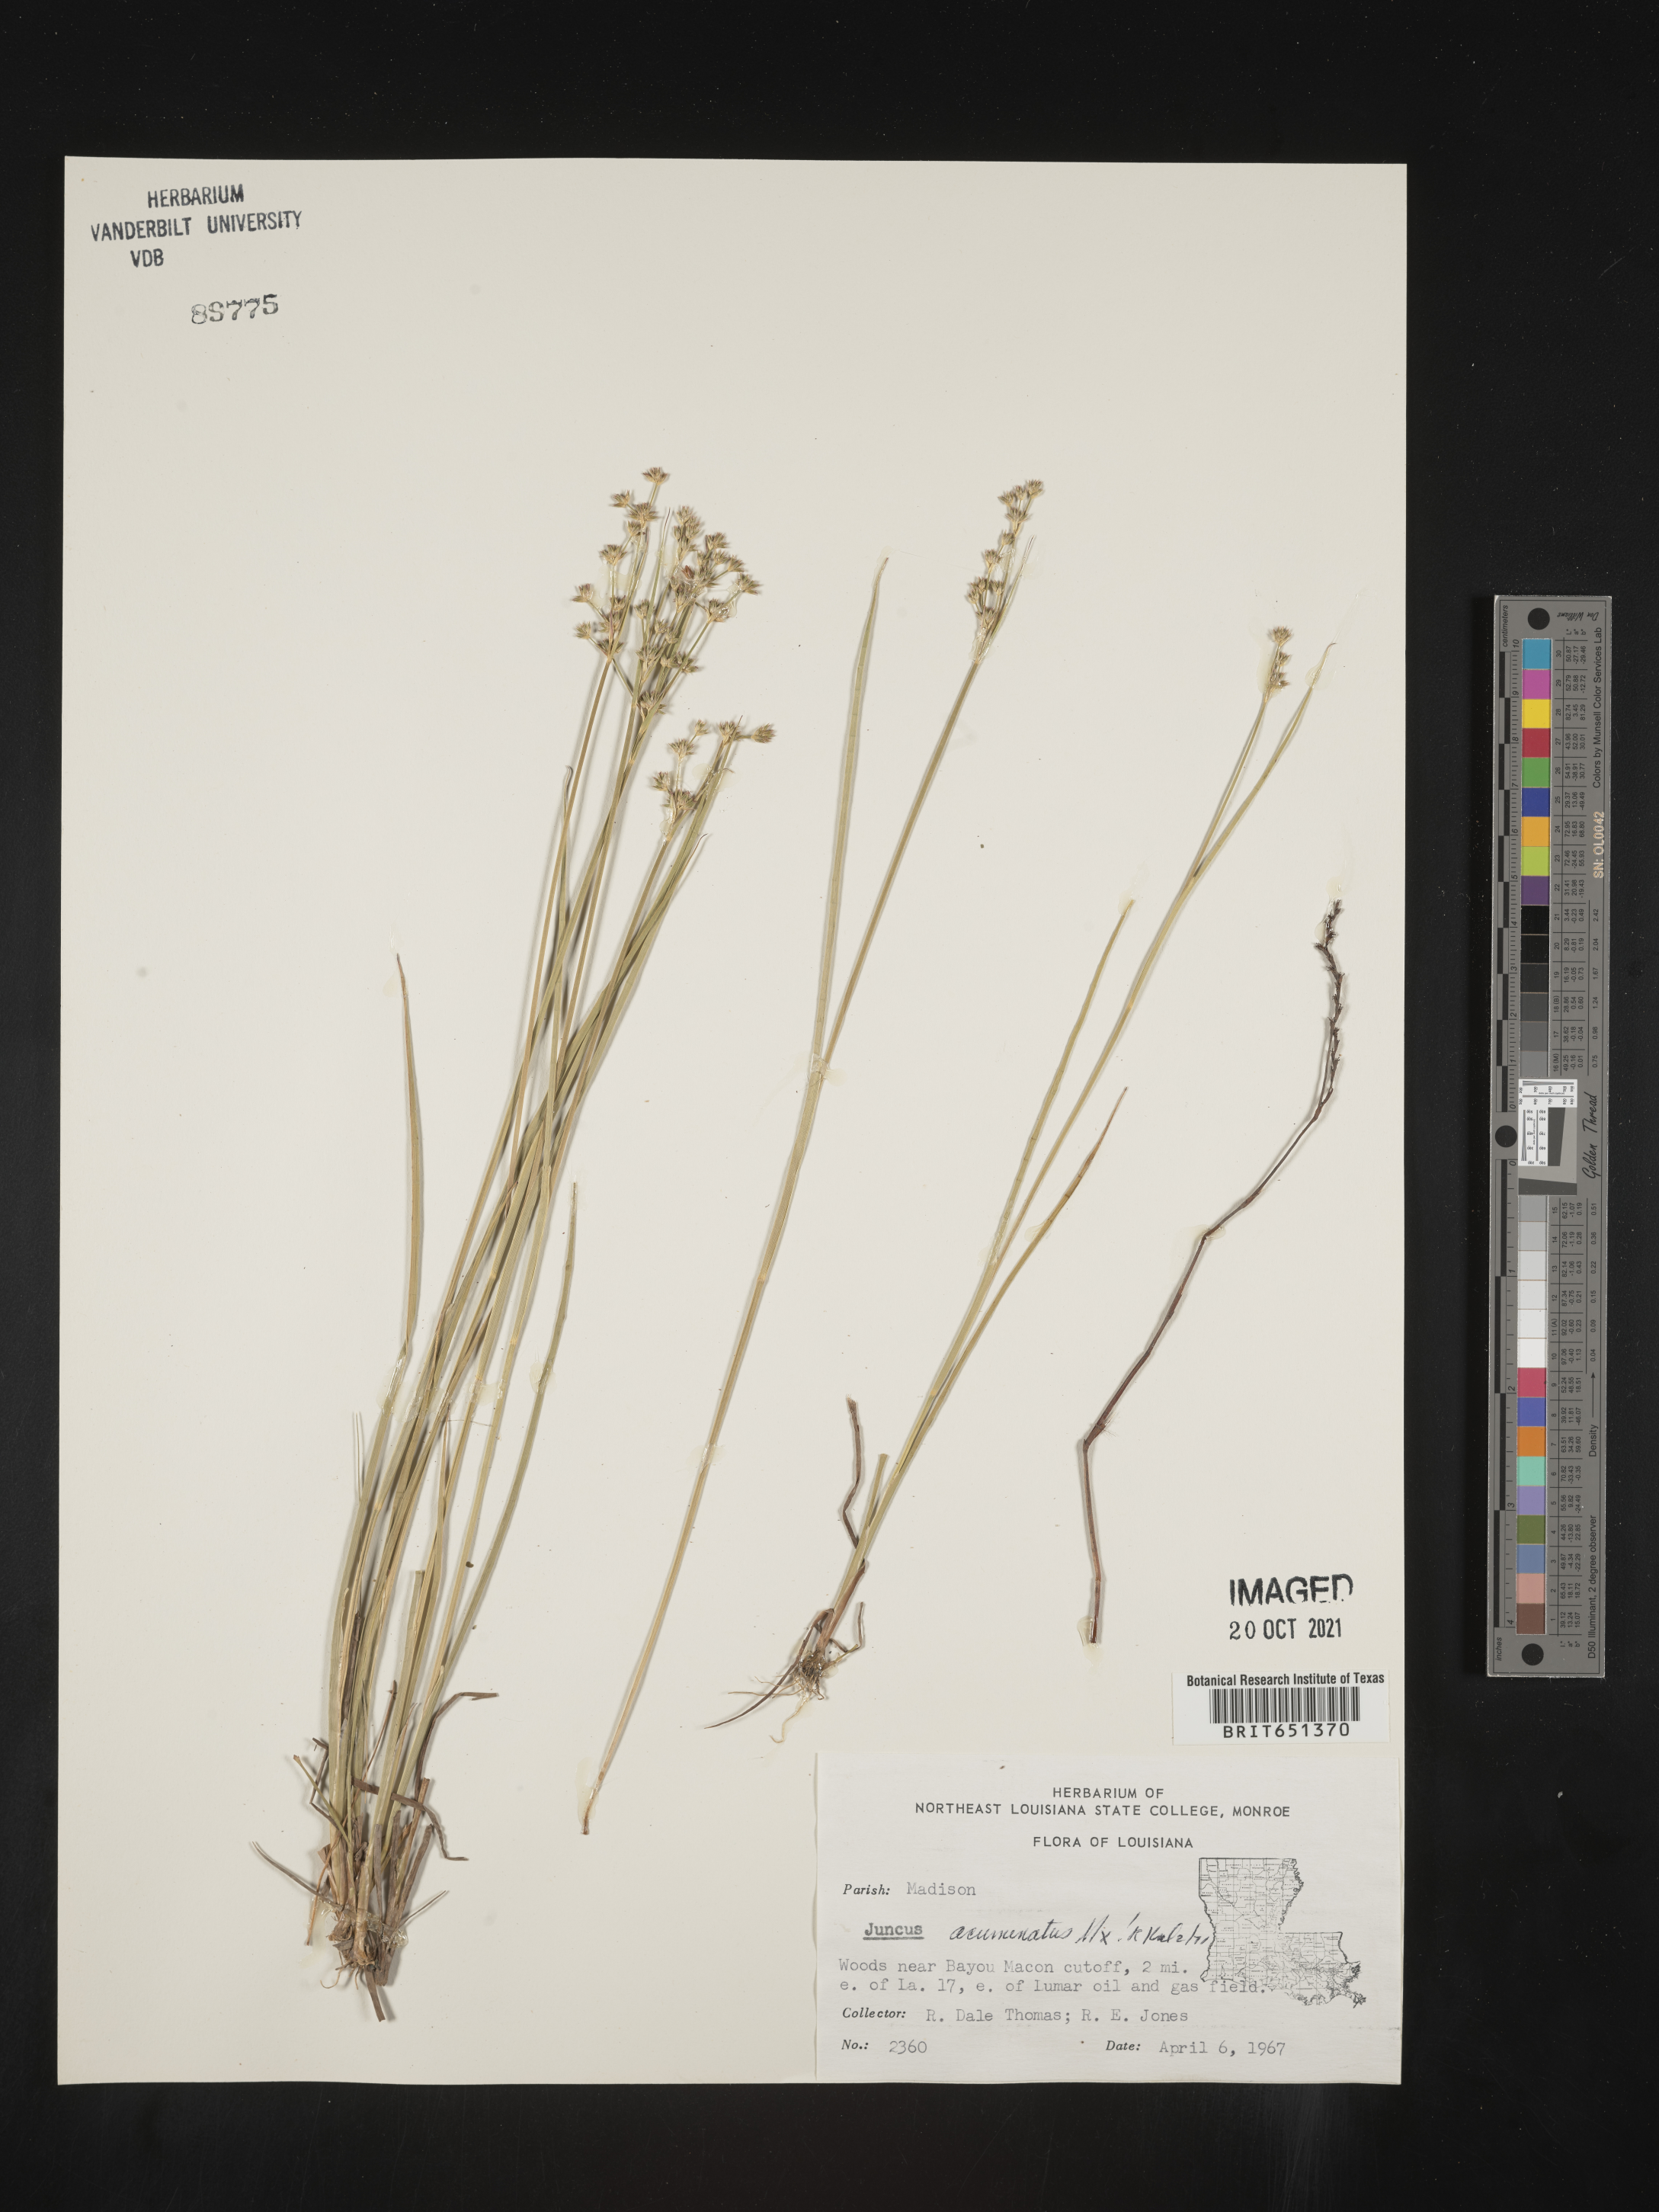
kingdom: Plantae
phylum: Tracheophyta
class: Liliopsida
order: Poales
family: Juncaceae
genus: Juncus
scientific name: Juncus acuminatus
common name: Knotty-leaved rush
